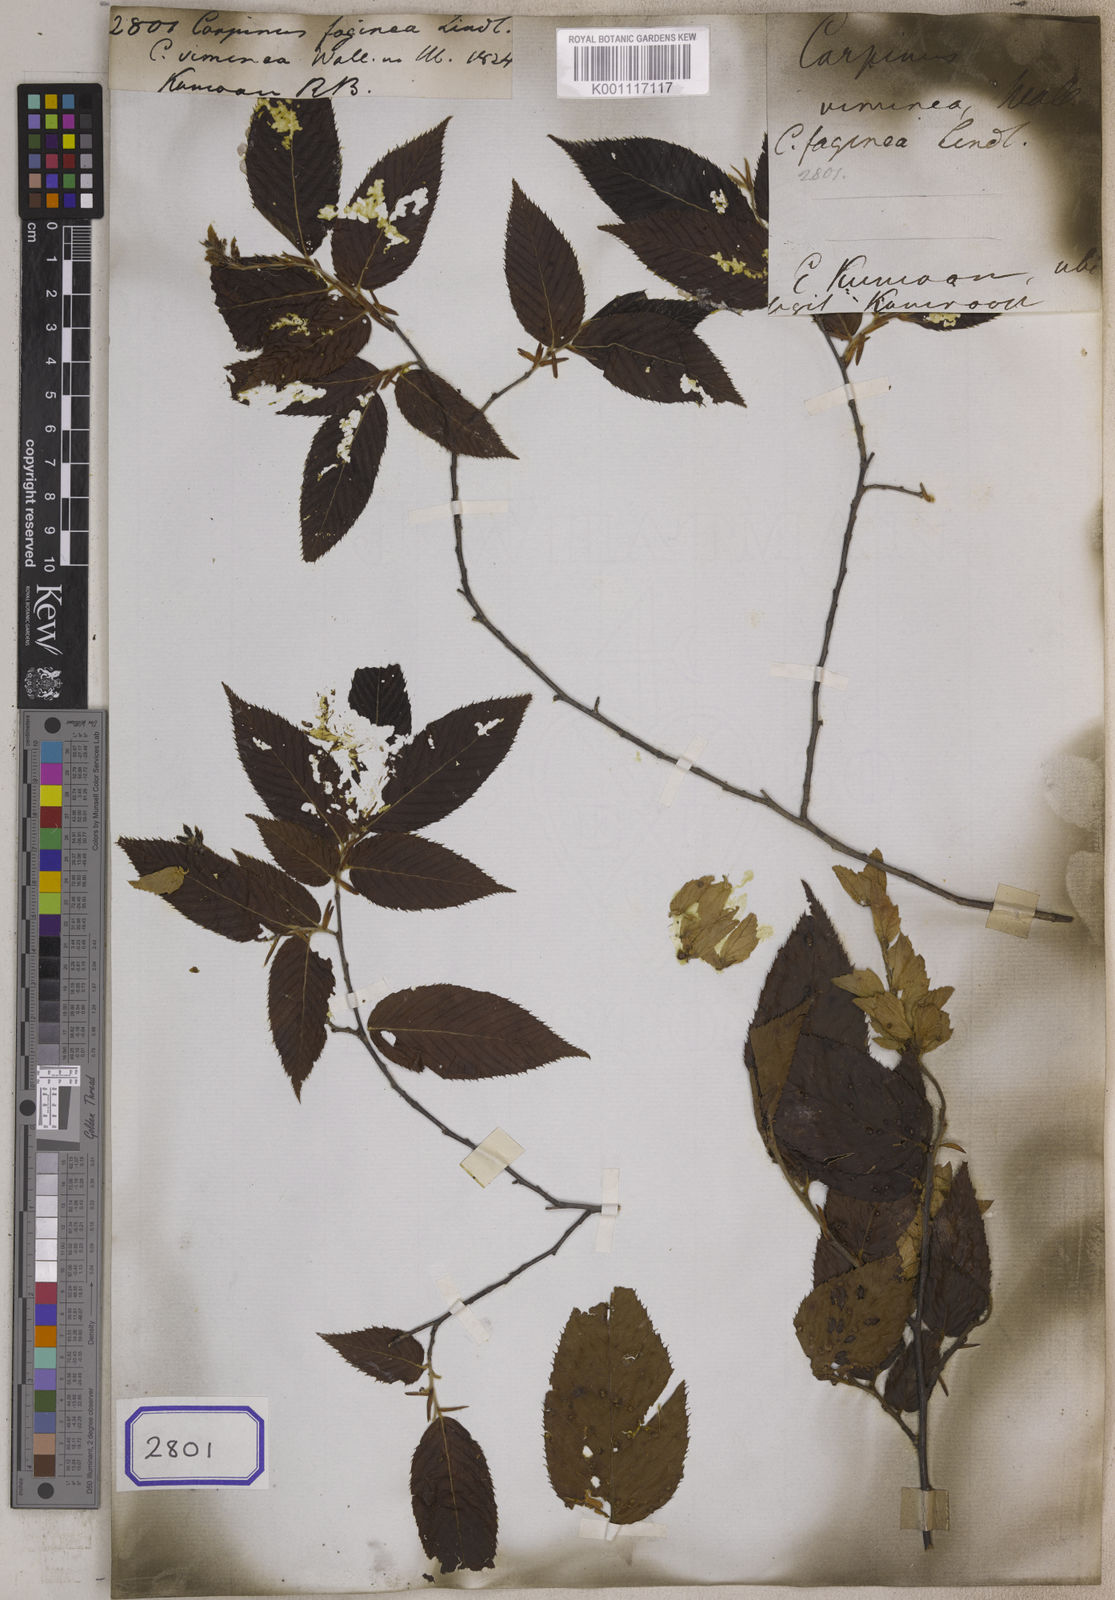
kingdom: Plantae
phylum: Tracheophyta
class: Magnoliopsida
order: Fagales
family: Betulaceae
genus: Carpinus
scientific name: Carpinus faginea
